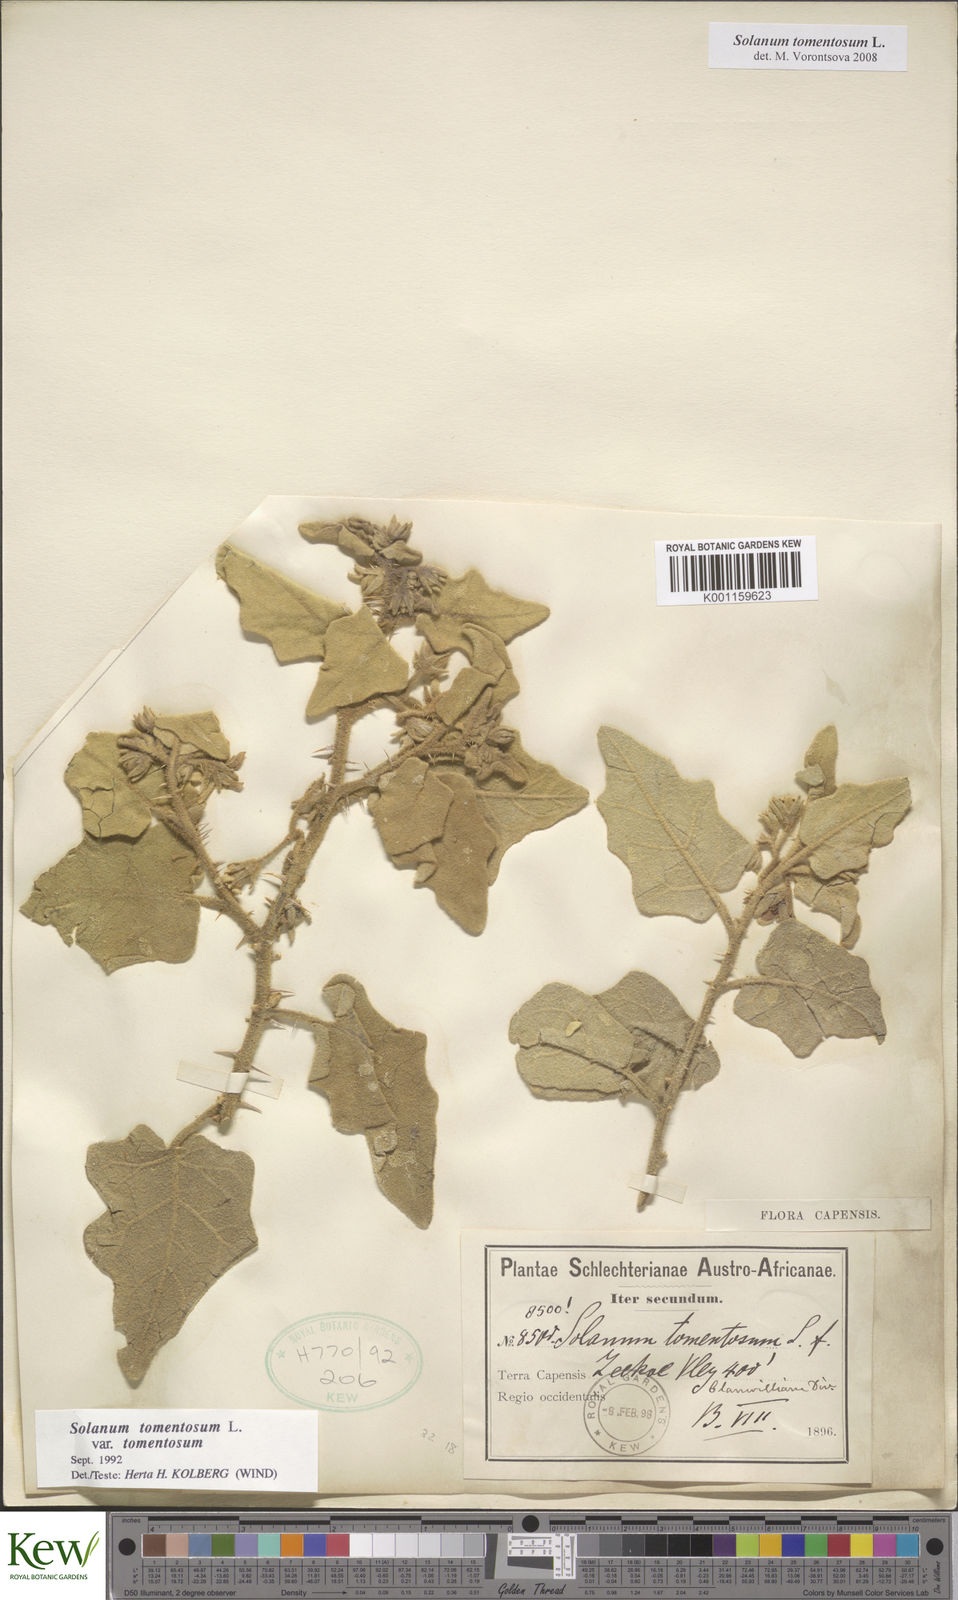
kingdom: Plantae
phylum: Tracheophyta
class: Magnoliopsida
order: Solanales
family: Solanaceae
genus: Solanum
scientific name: Solanum tomentosum
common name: Wild aubergine
